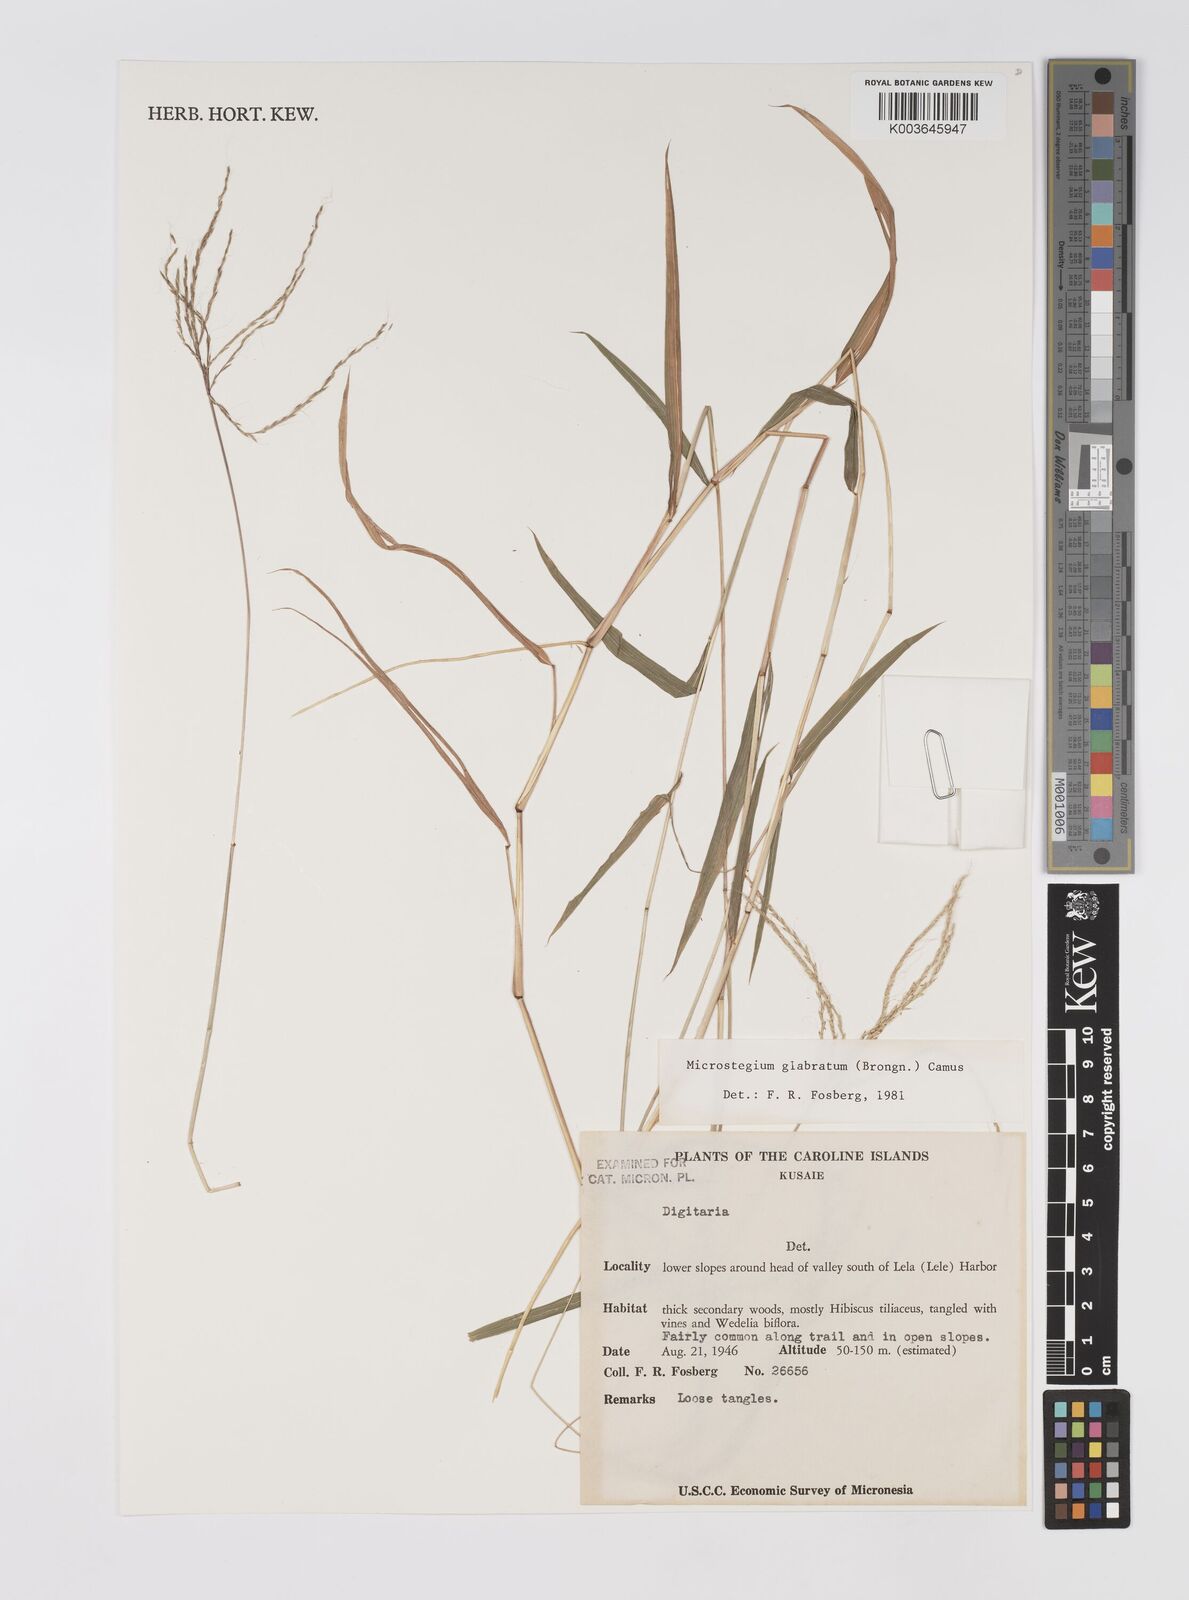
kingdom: Plantae
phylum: Tracheophyta
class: Liliopsida
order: Poales
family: Poaceae
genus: Microstegium
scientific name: Microstegium glabratum
